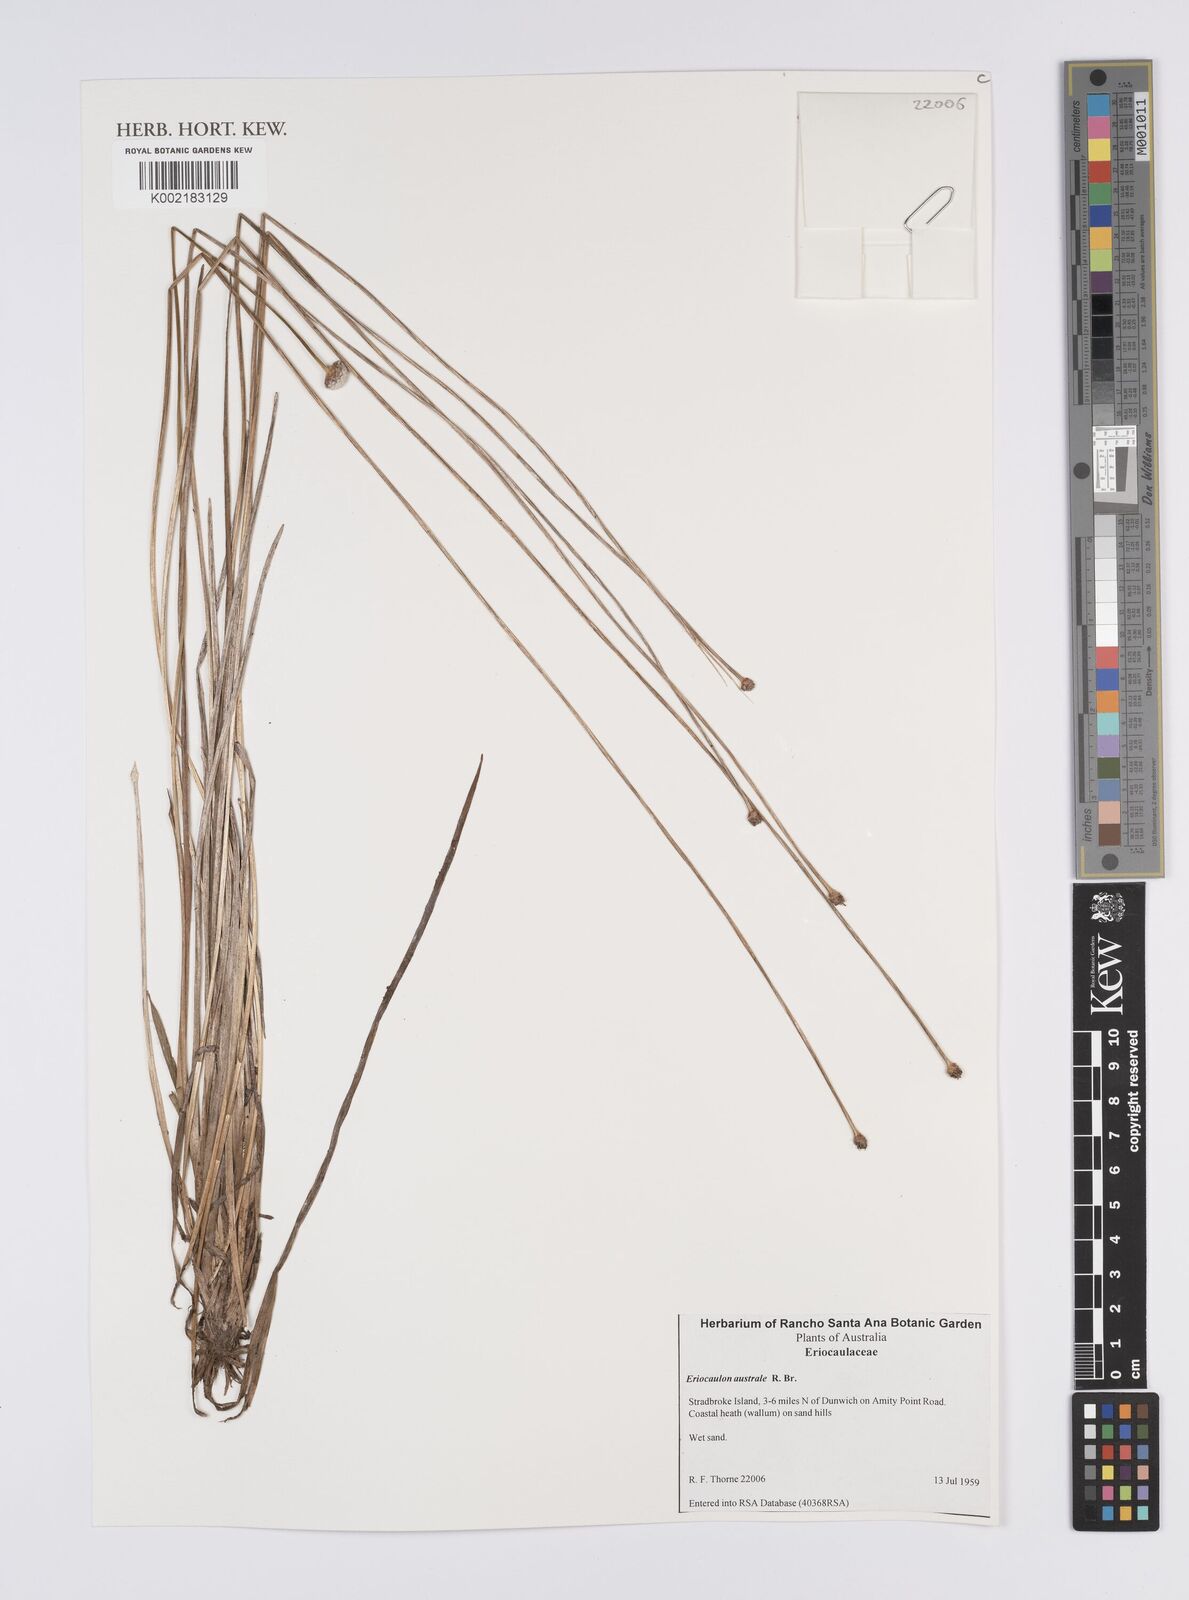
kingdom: Plantae
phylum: Tracheophyta
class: Liliopsida
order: Poales
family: Eriocaulaceae
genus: Eriocaulon
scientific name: Eriocaulon australe
